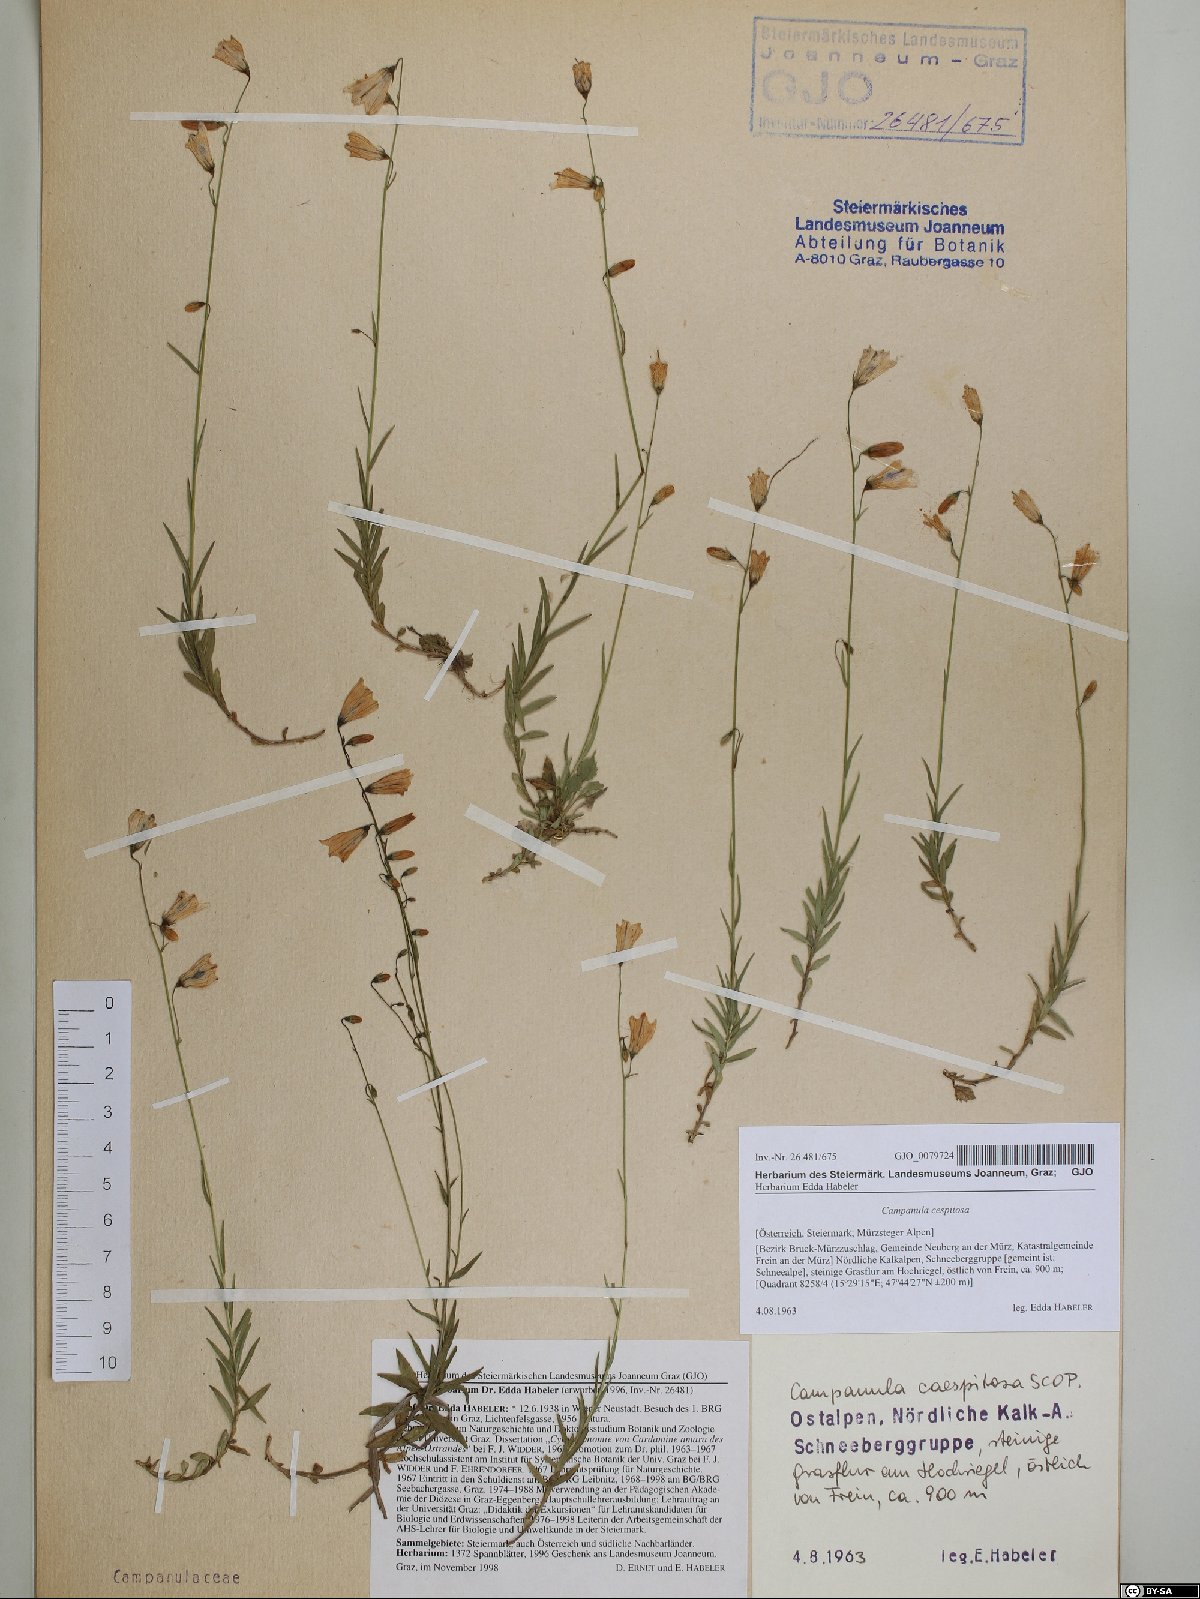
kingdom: Plantae
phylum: Tracheophyta
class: Magnoliopsida
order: Asterales
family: Campanulaceae
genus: Campanula
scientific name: Campanula cespitosa
